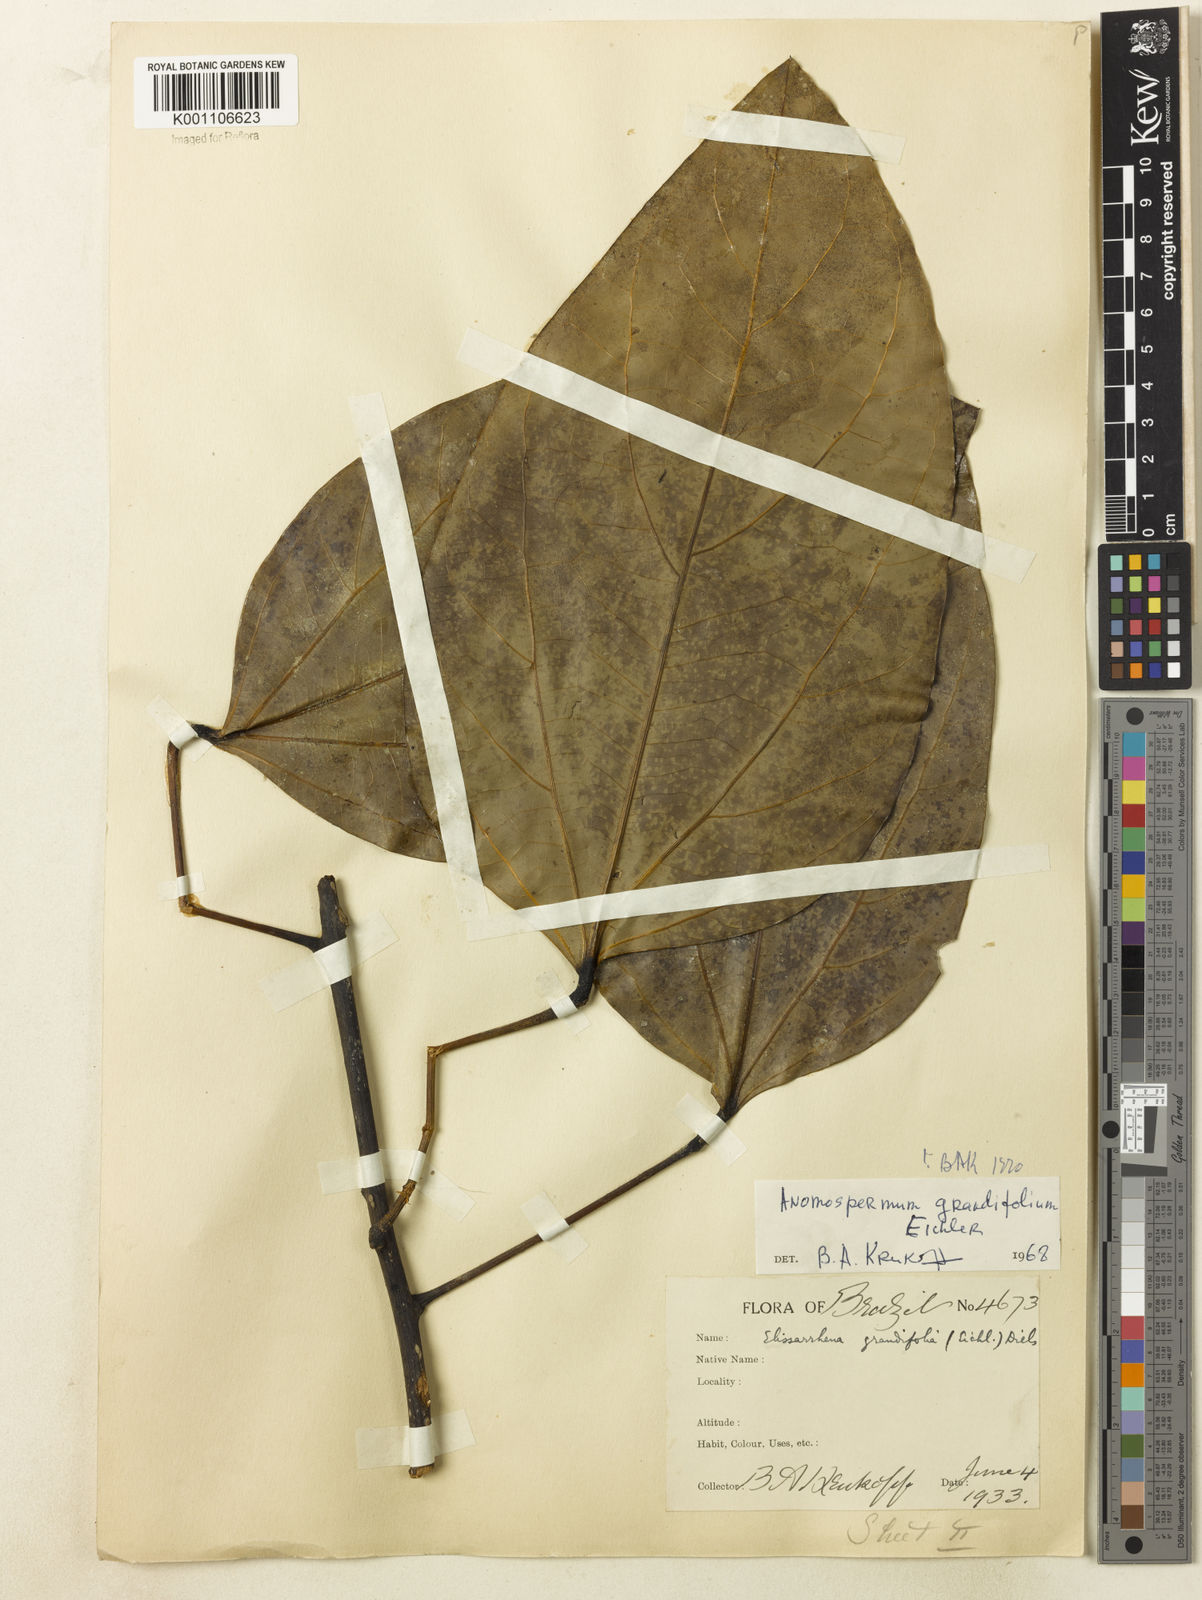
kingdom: Plantae
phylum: Tracheophyta
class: Magnoliopsida
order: Ranunculales
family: Menispermaceae
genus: Elissarrhena
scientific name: Elissarrhena longipes
